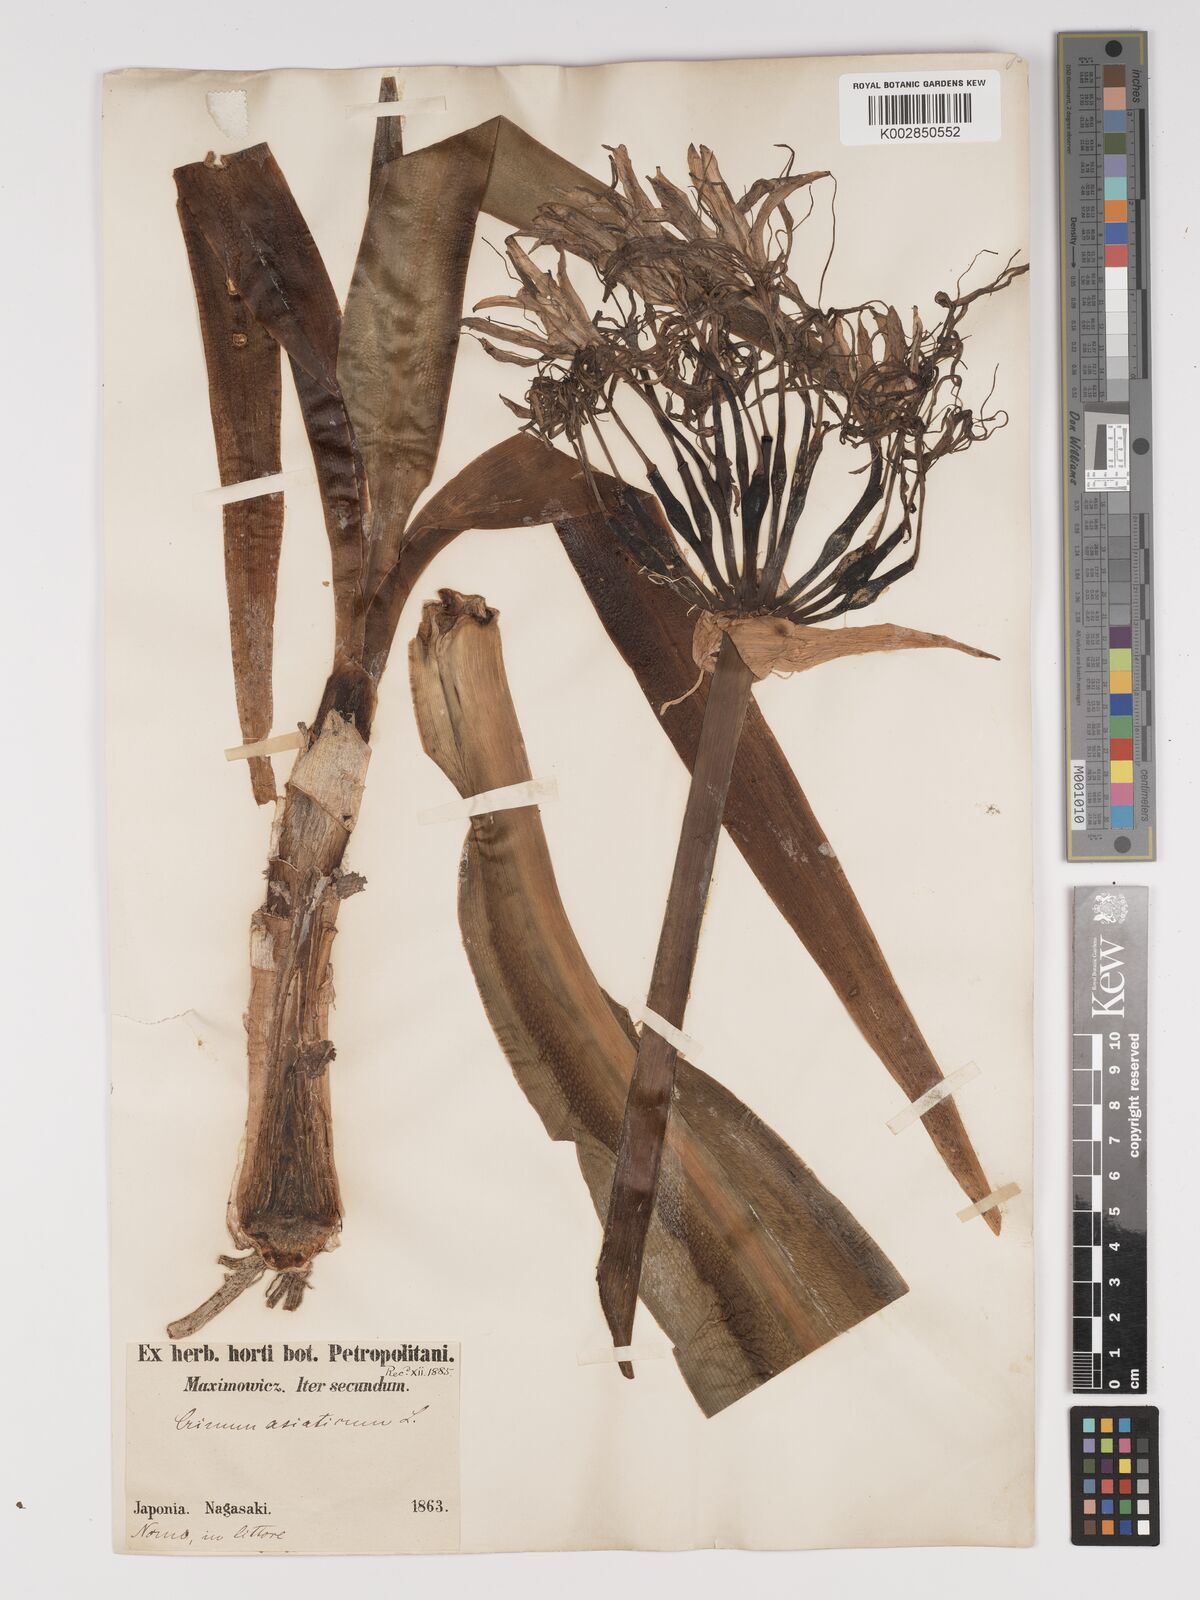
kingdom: Plantae
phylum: Tracheophyta
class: Liliopsida
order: Asparagales
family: Amaryllidaceae
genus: Crinum
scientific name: Crinum asiaticum
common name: Poisonbulb
